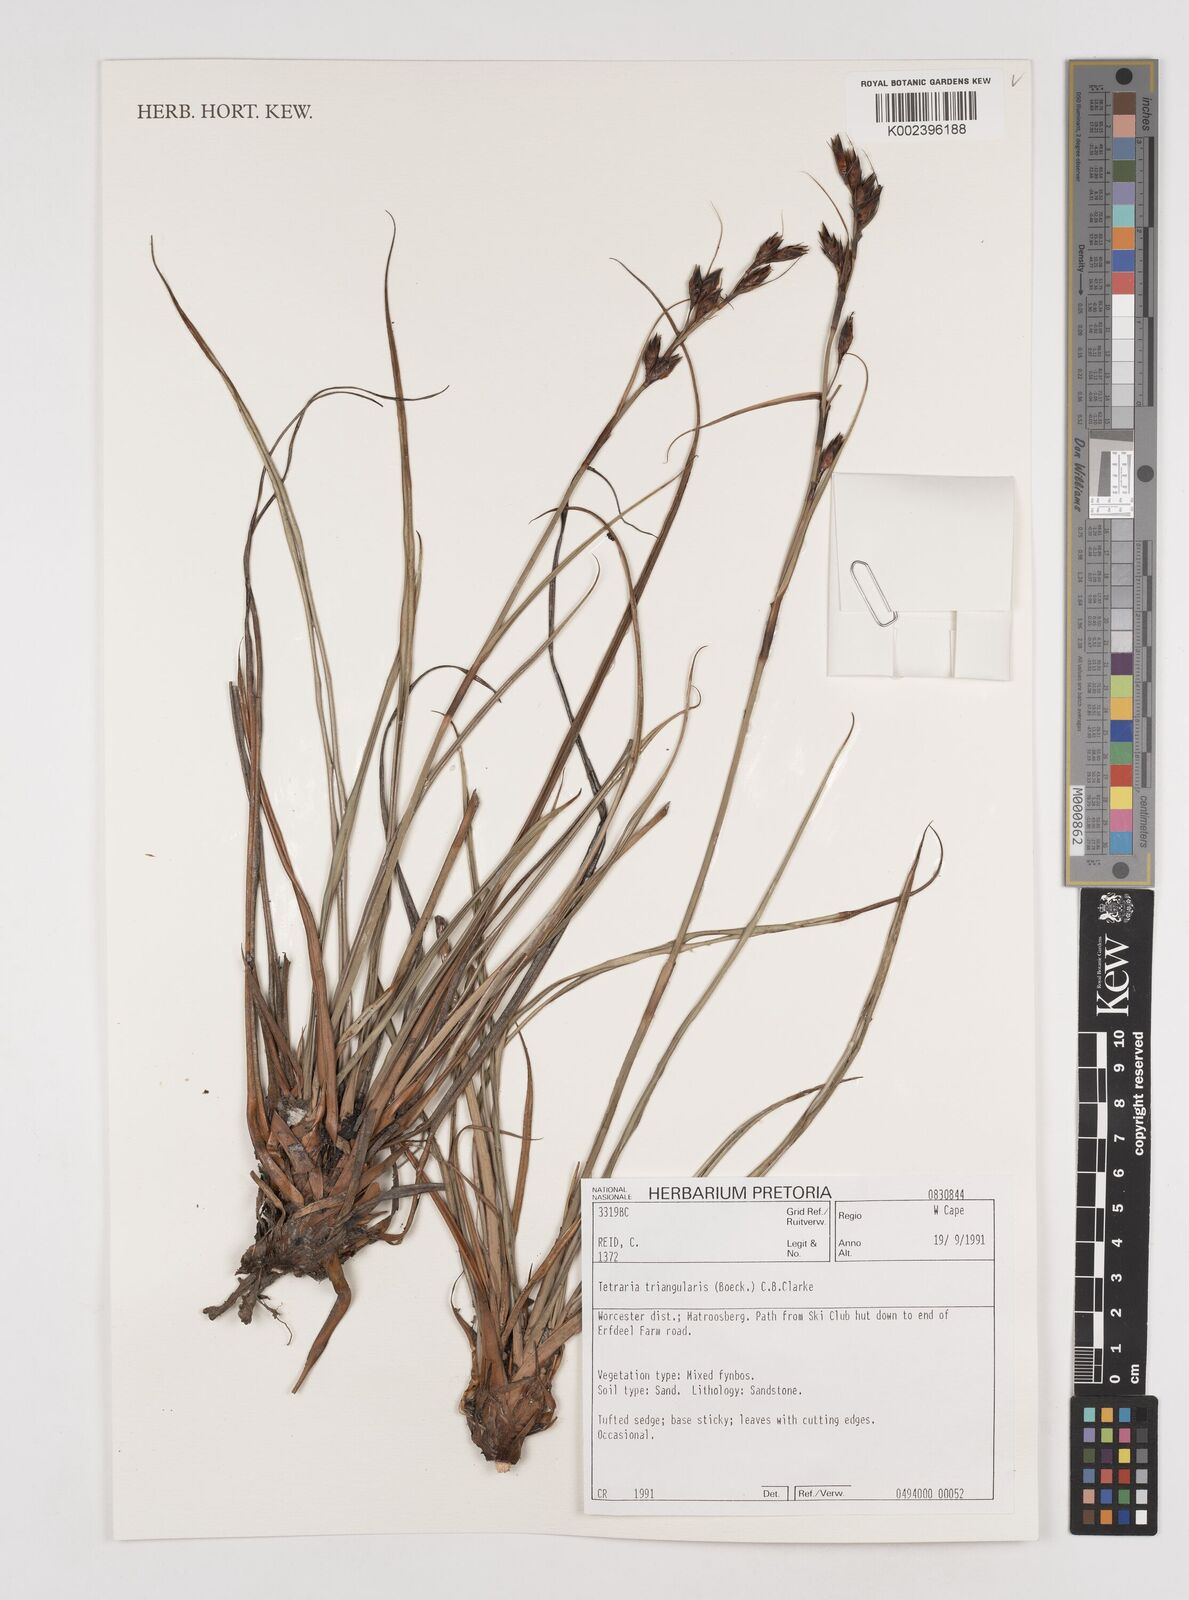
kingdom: Plantae
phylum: Tracheophyta
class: Liliopsida
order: Poales
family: Cyperaceae
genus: Tetraria
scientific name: Tetraria triangularis
